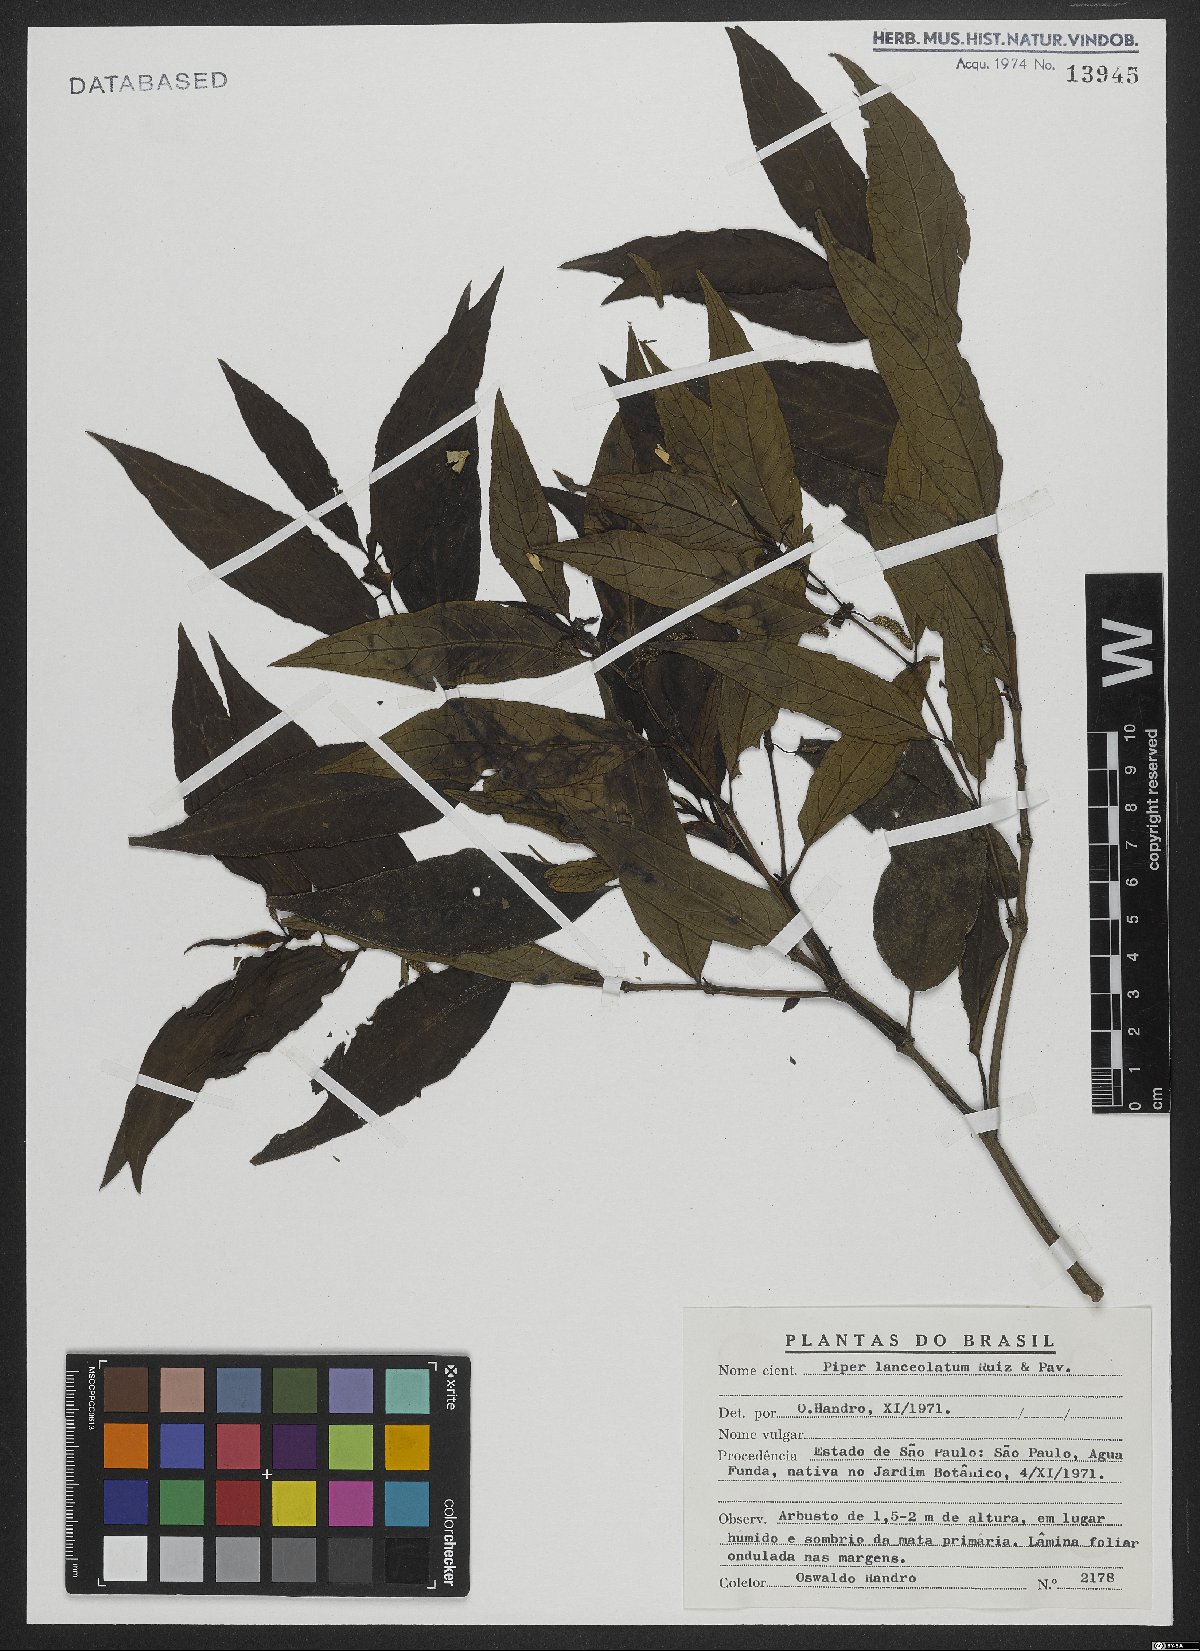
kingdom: Plantae
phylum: Tracheophyta
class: Magnoliopsida
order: Piperales
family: Piperaceae
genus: Piper
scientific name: Piper lanceolatum
